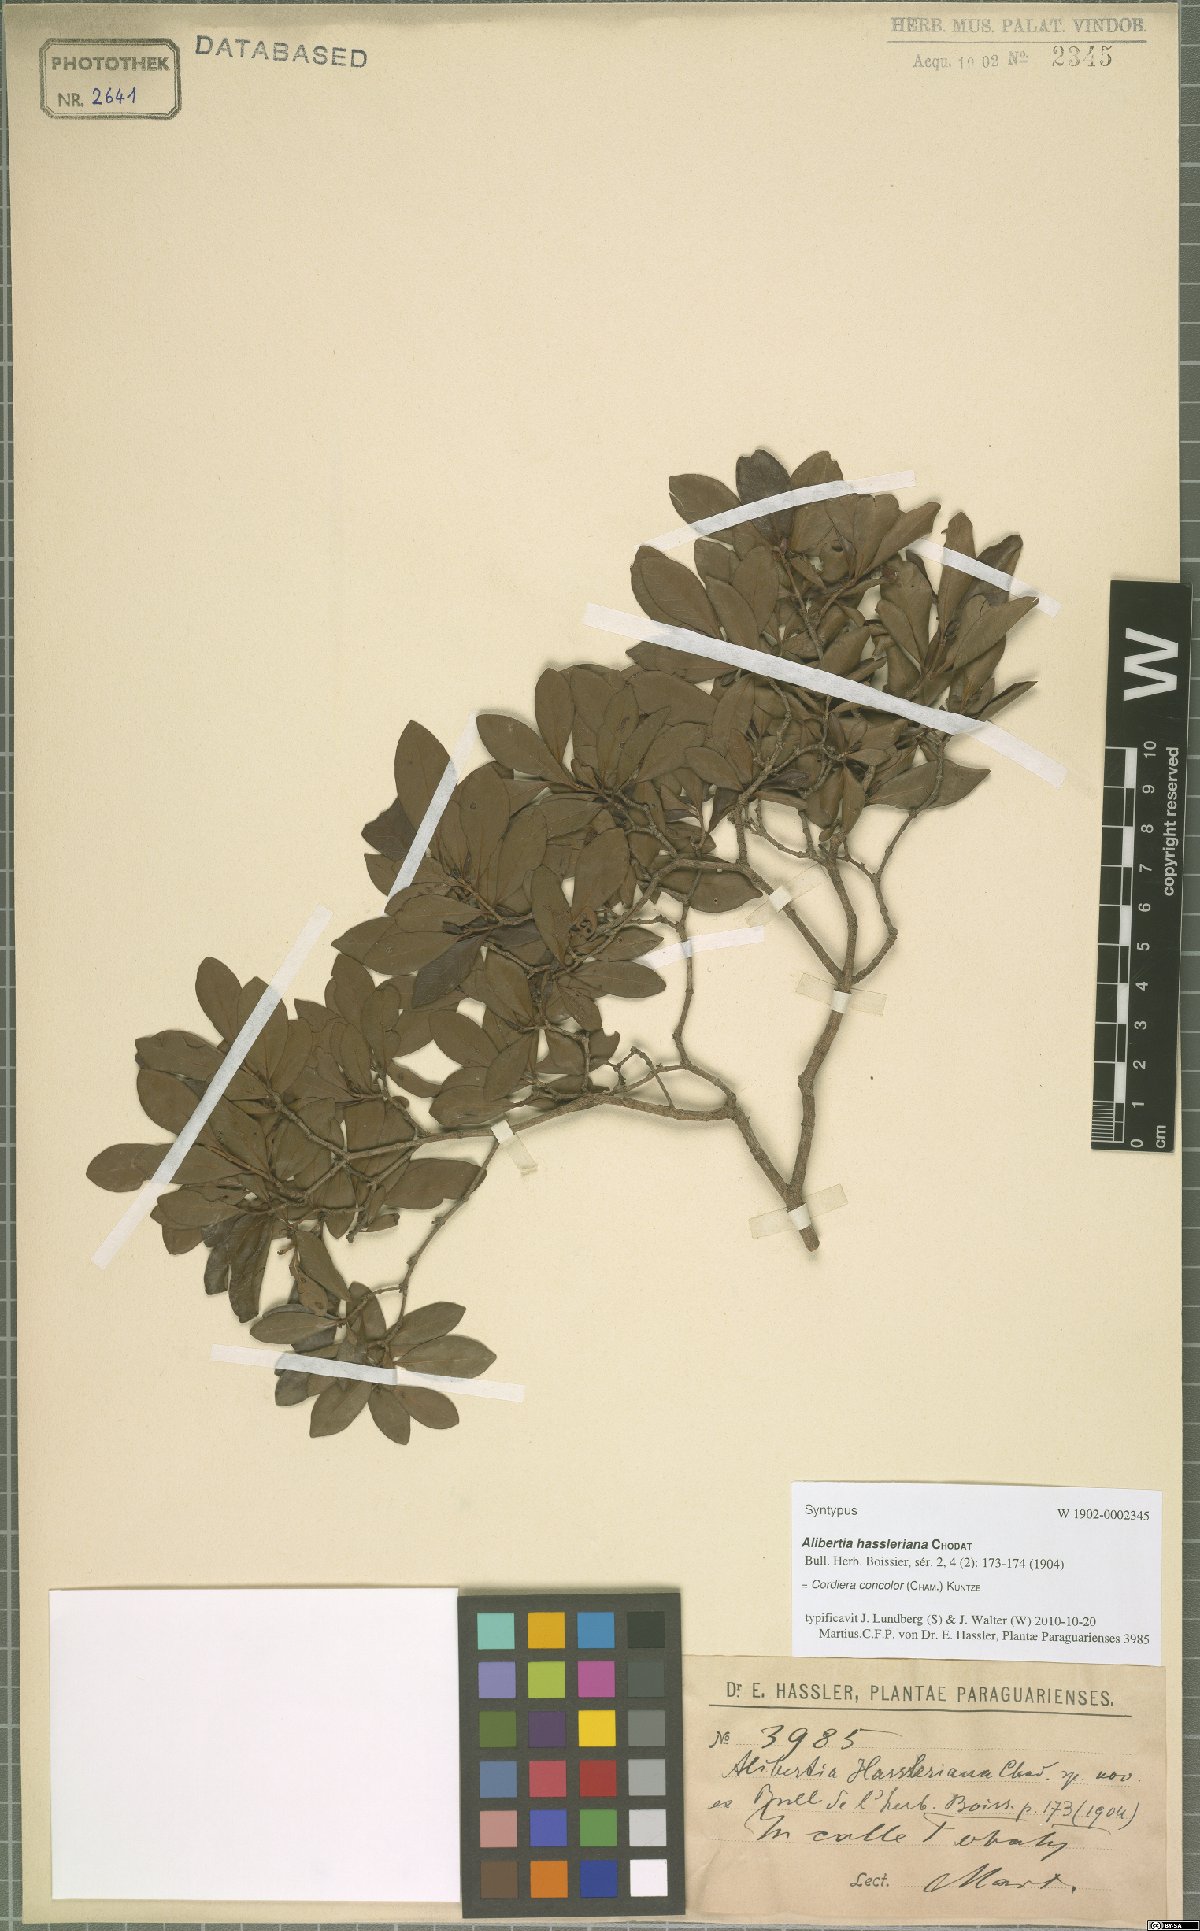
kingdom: Plantae
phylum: Tracheophyta
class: Magnoliopsida
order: Gentianales
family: Rubiaceae
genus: Cordiera
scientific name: Cordiera concolor
